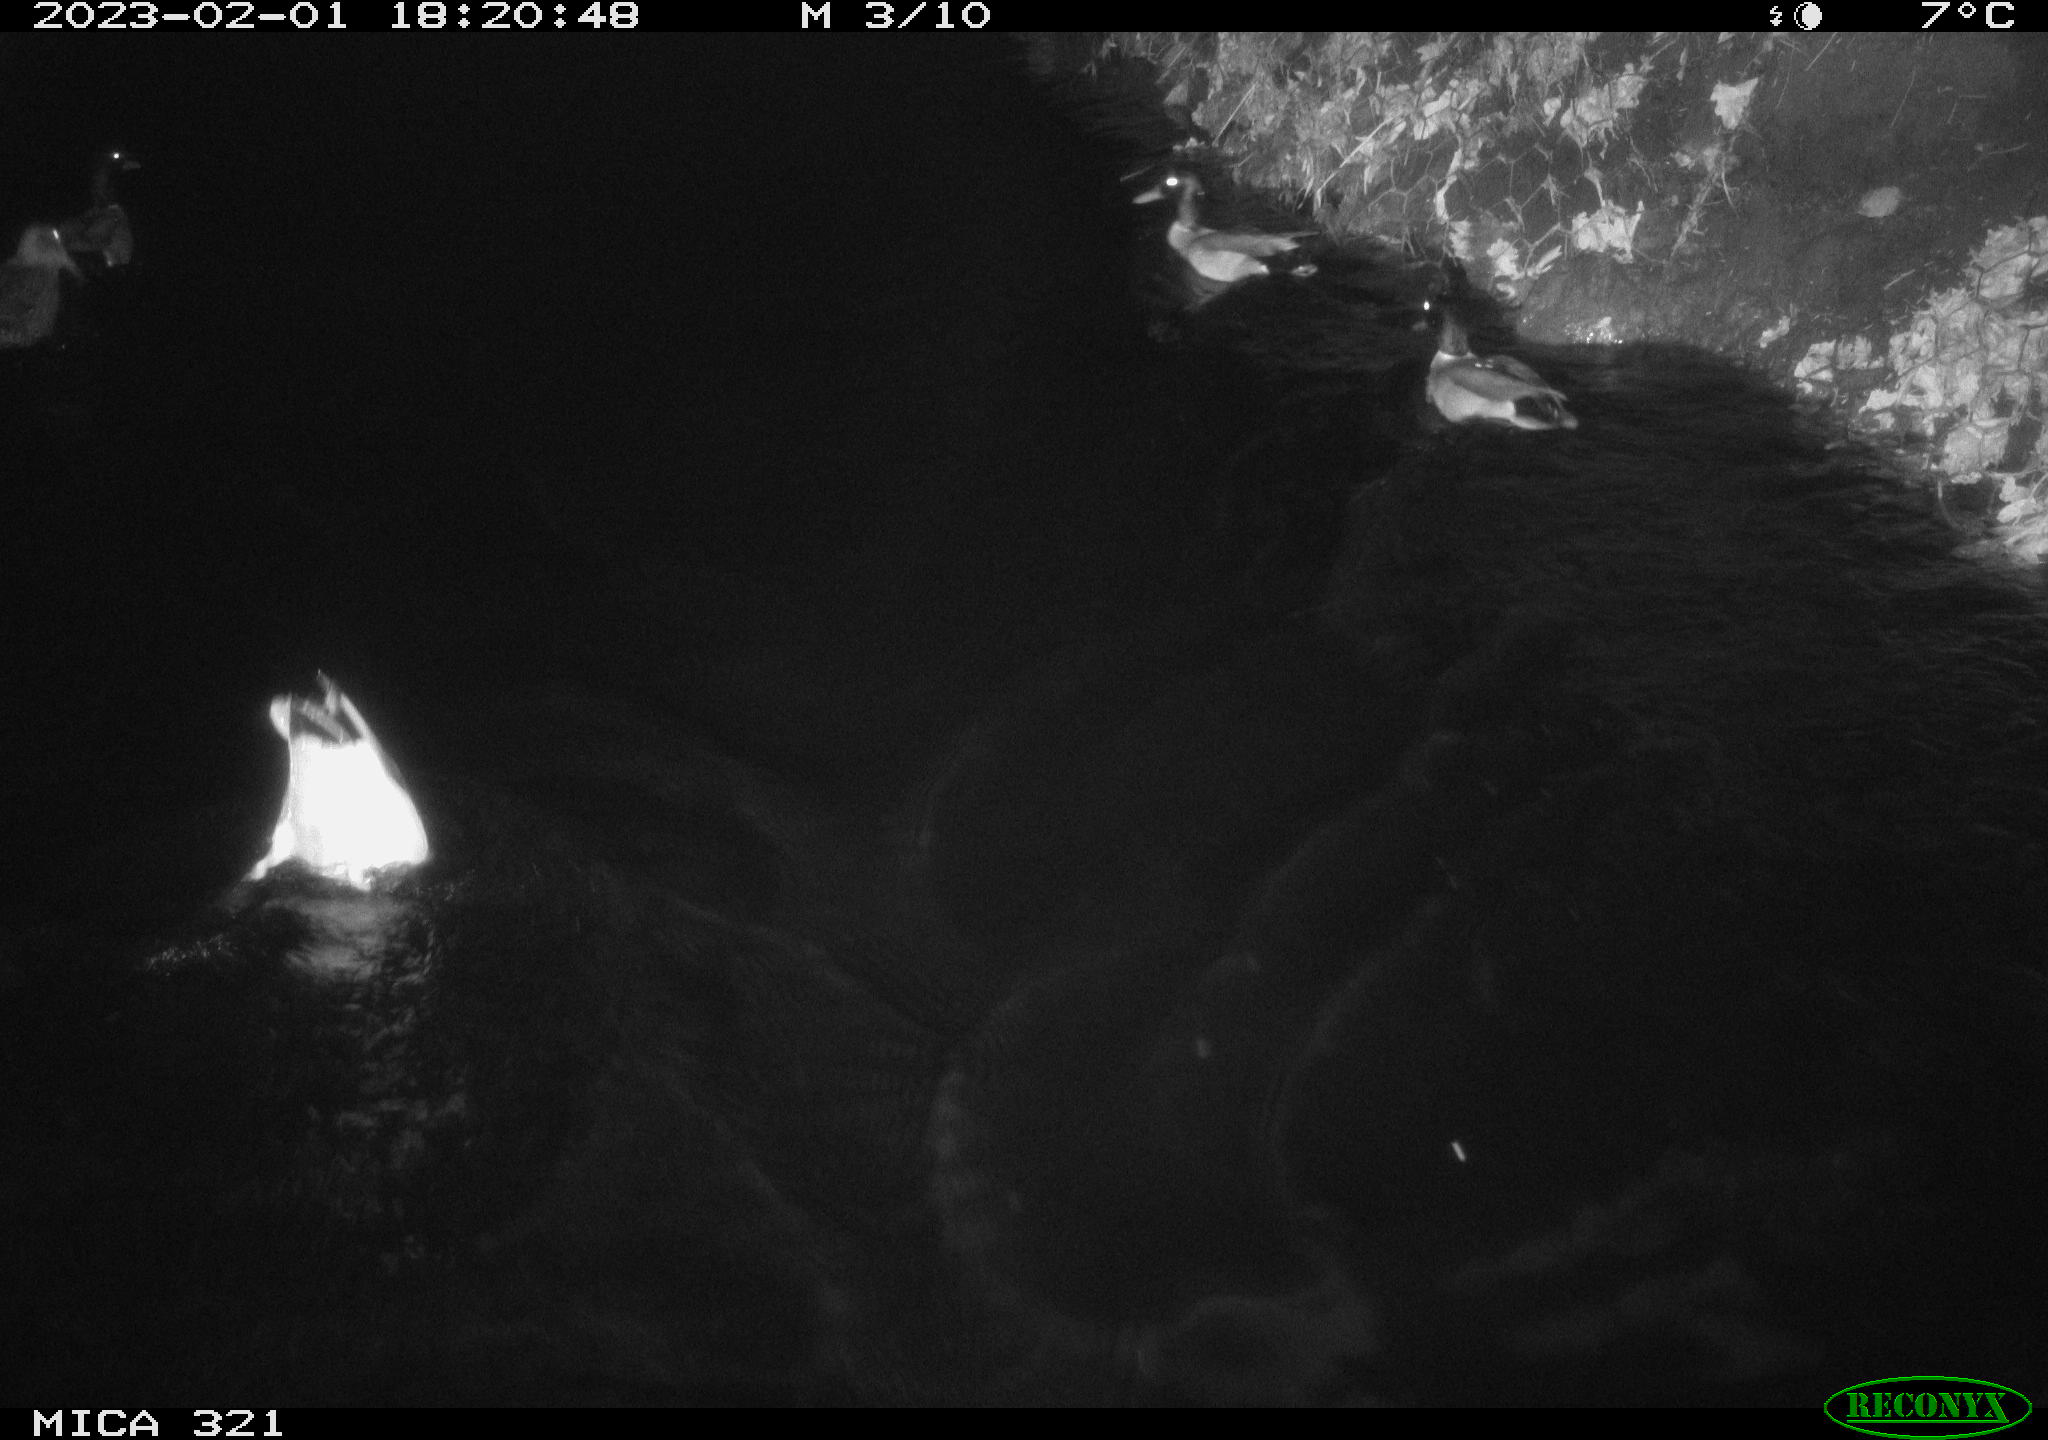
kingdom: Animalia
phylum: Chordata
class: Aves
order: Anseriformes
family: Anatidae
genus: Anas
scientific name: Anas
